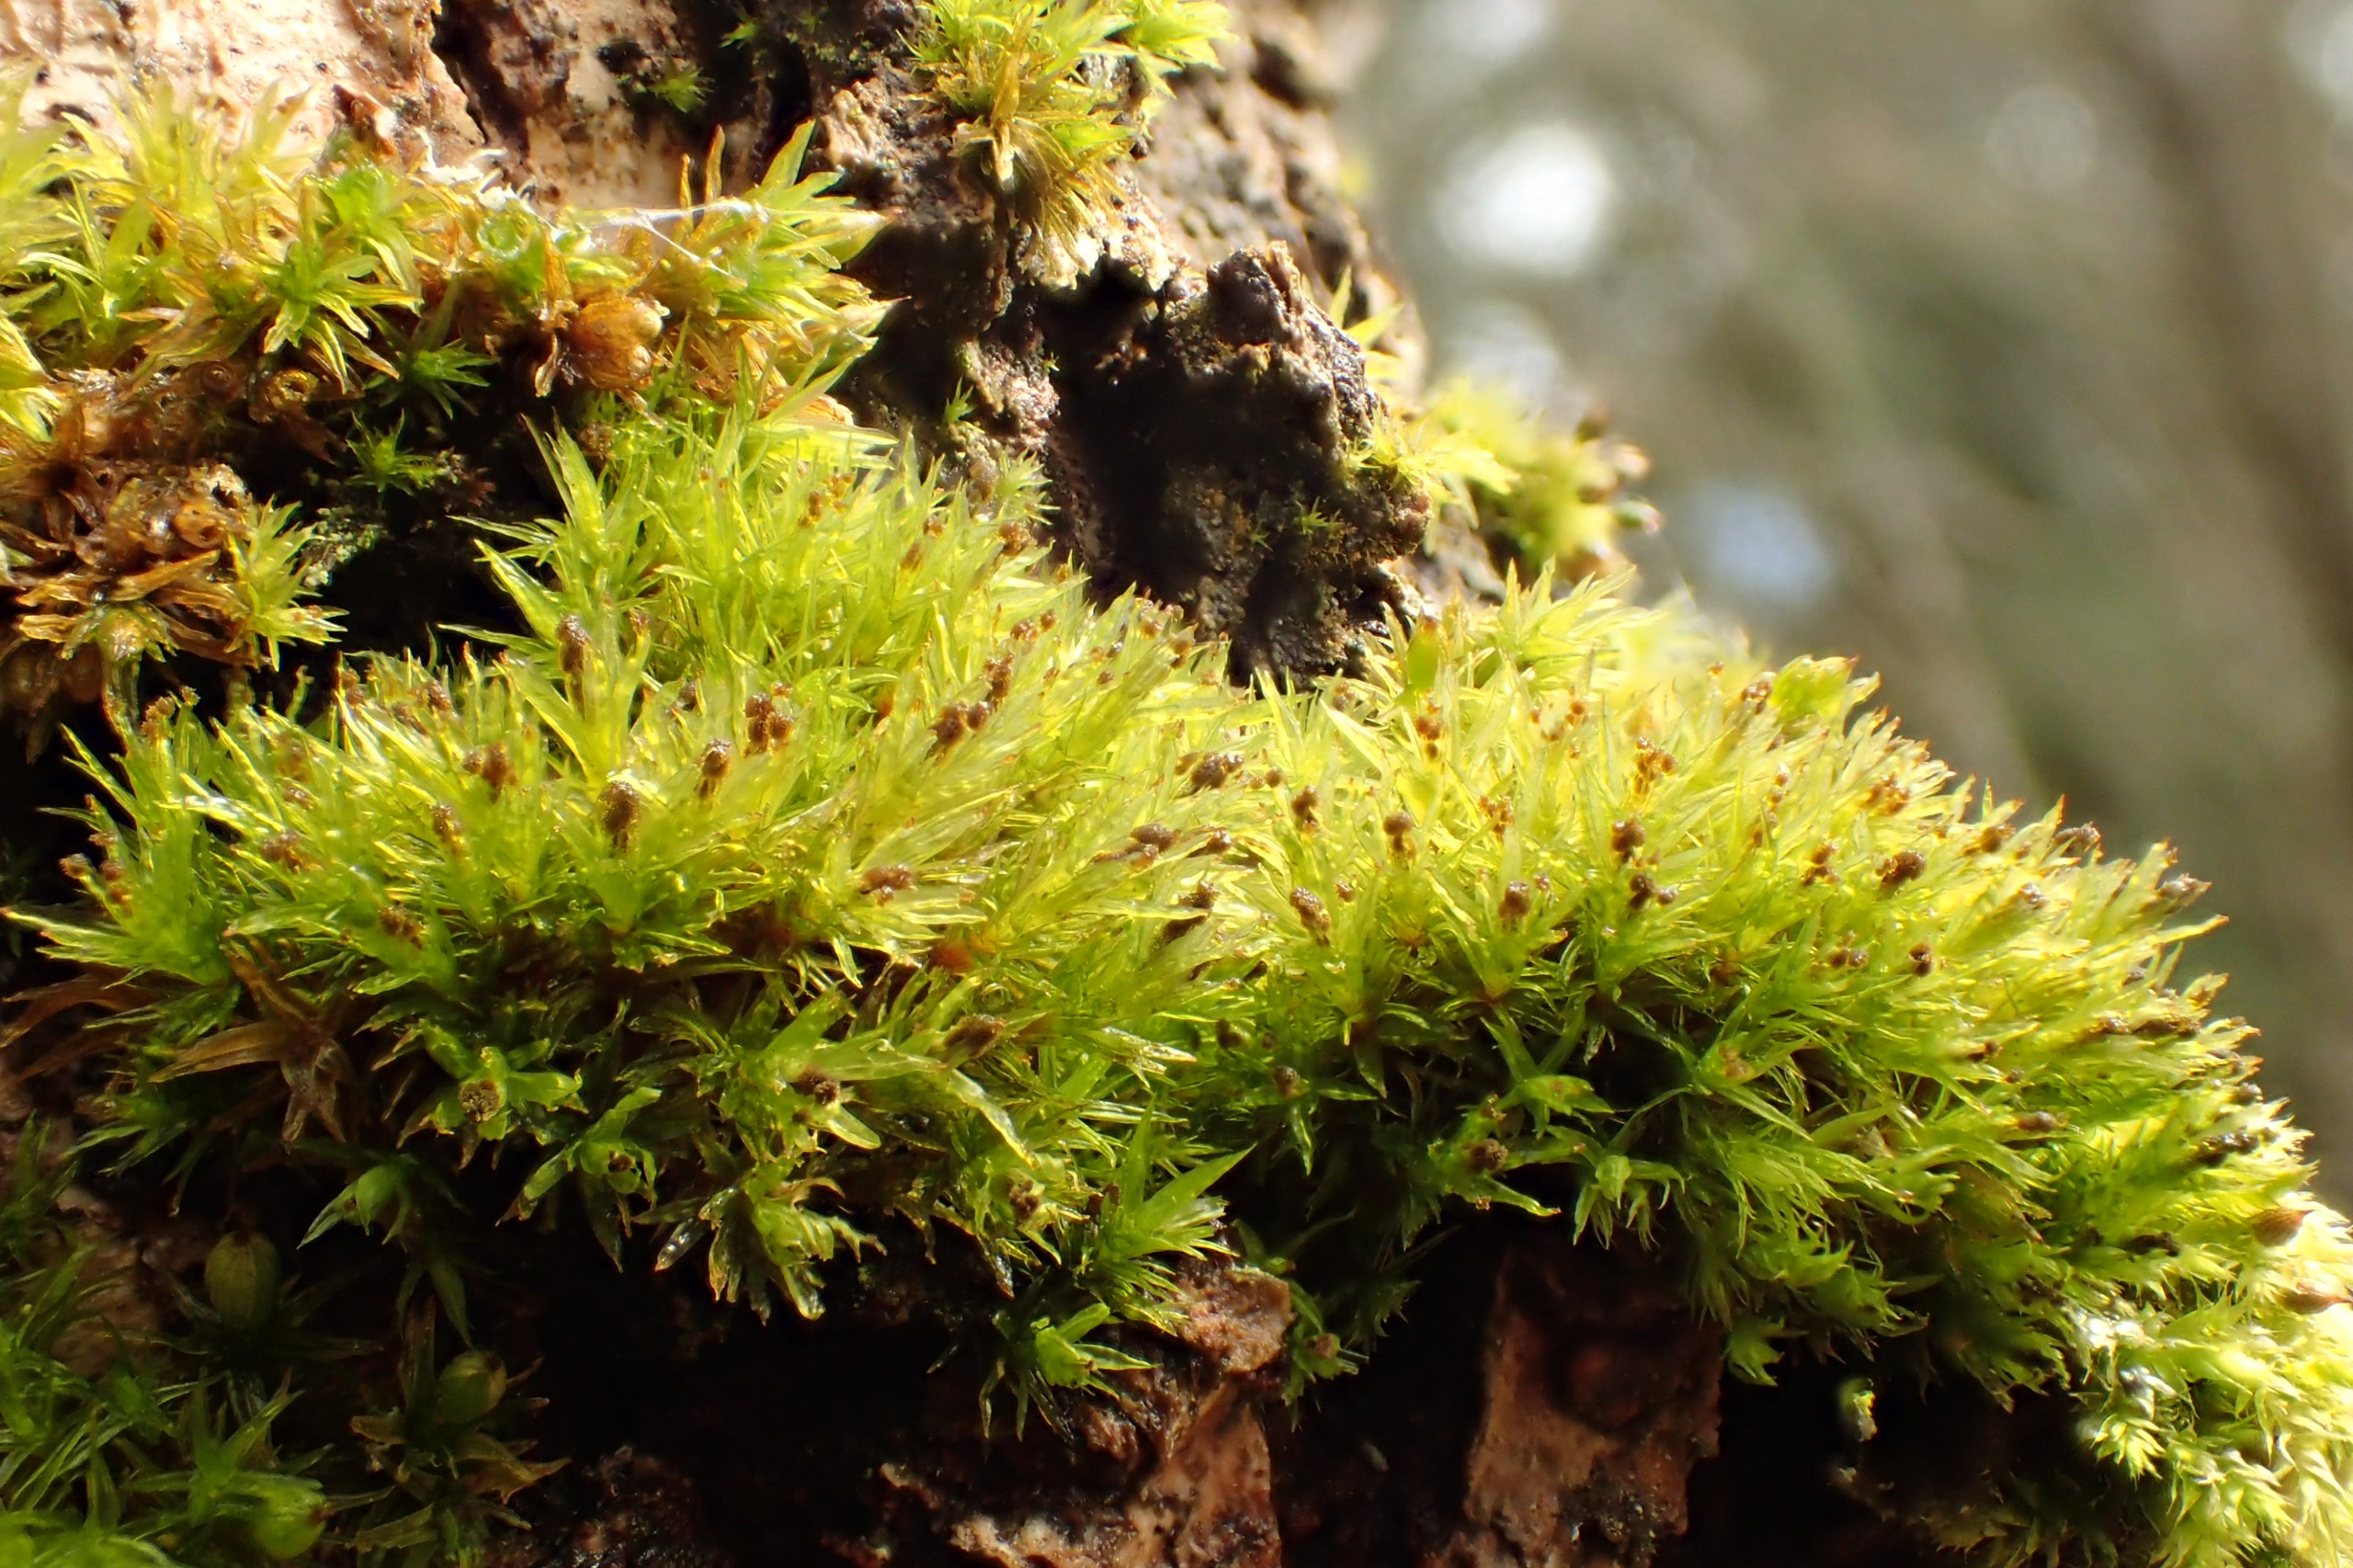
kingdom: Plantae
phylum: Bryophyta
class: Bryopsida
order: Orthotrichales
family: Orthotrichaceae
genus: Plenogemma
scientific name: Plenogemma phyllantha
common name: Stor låddenhætte
